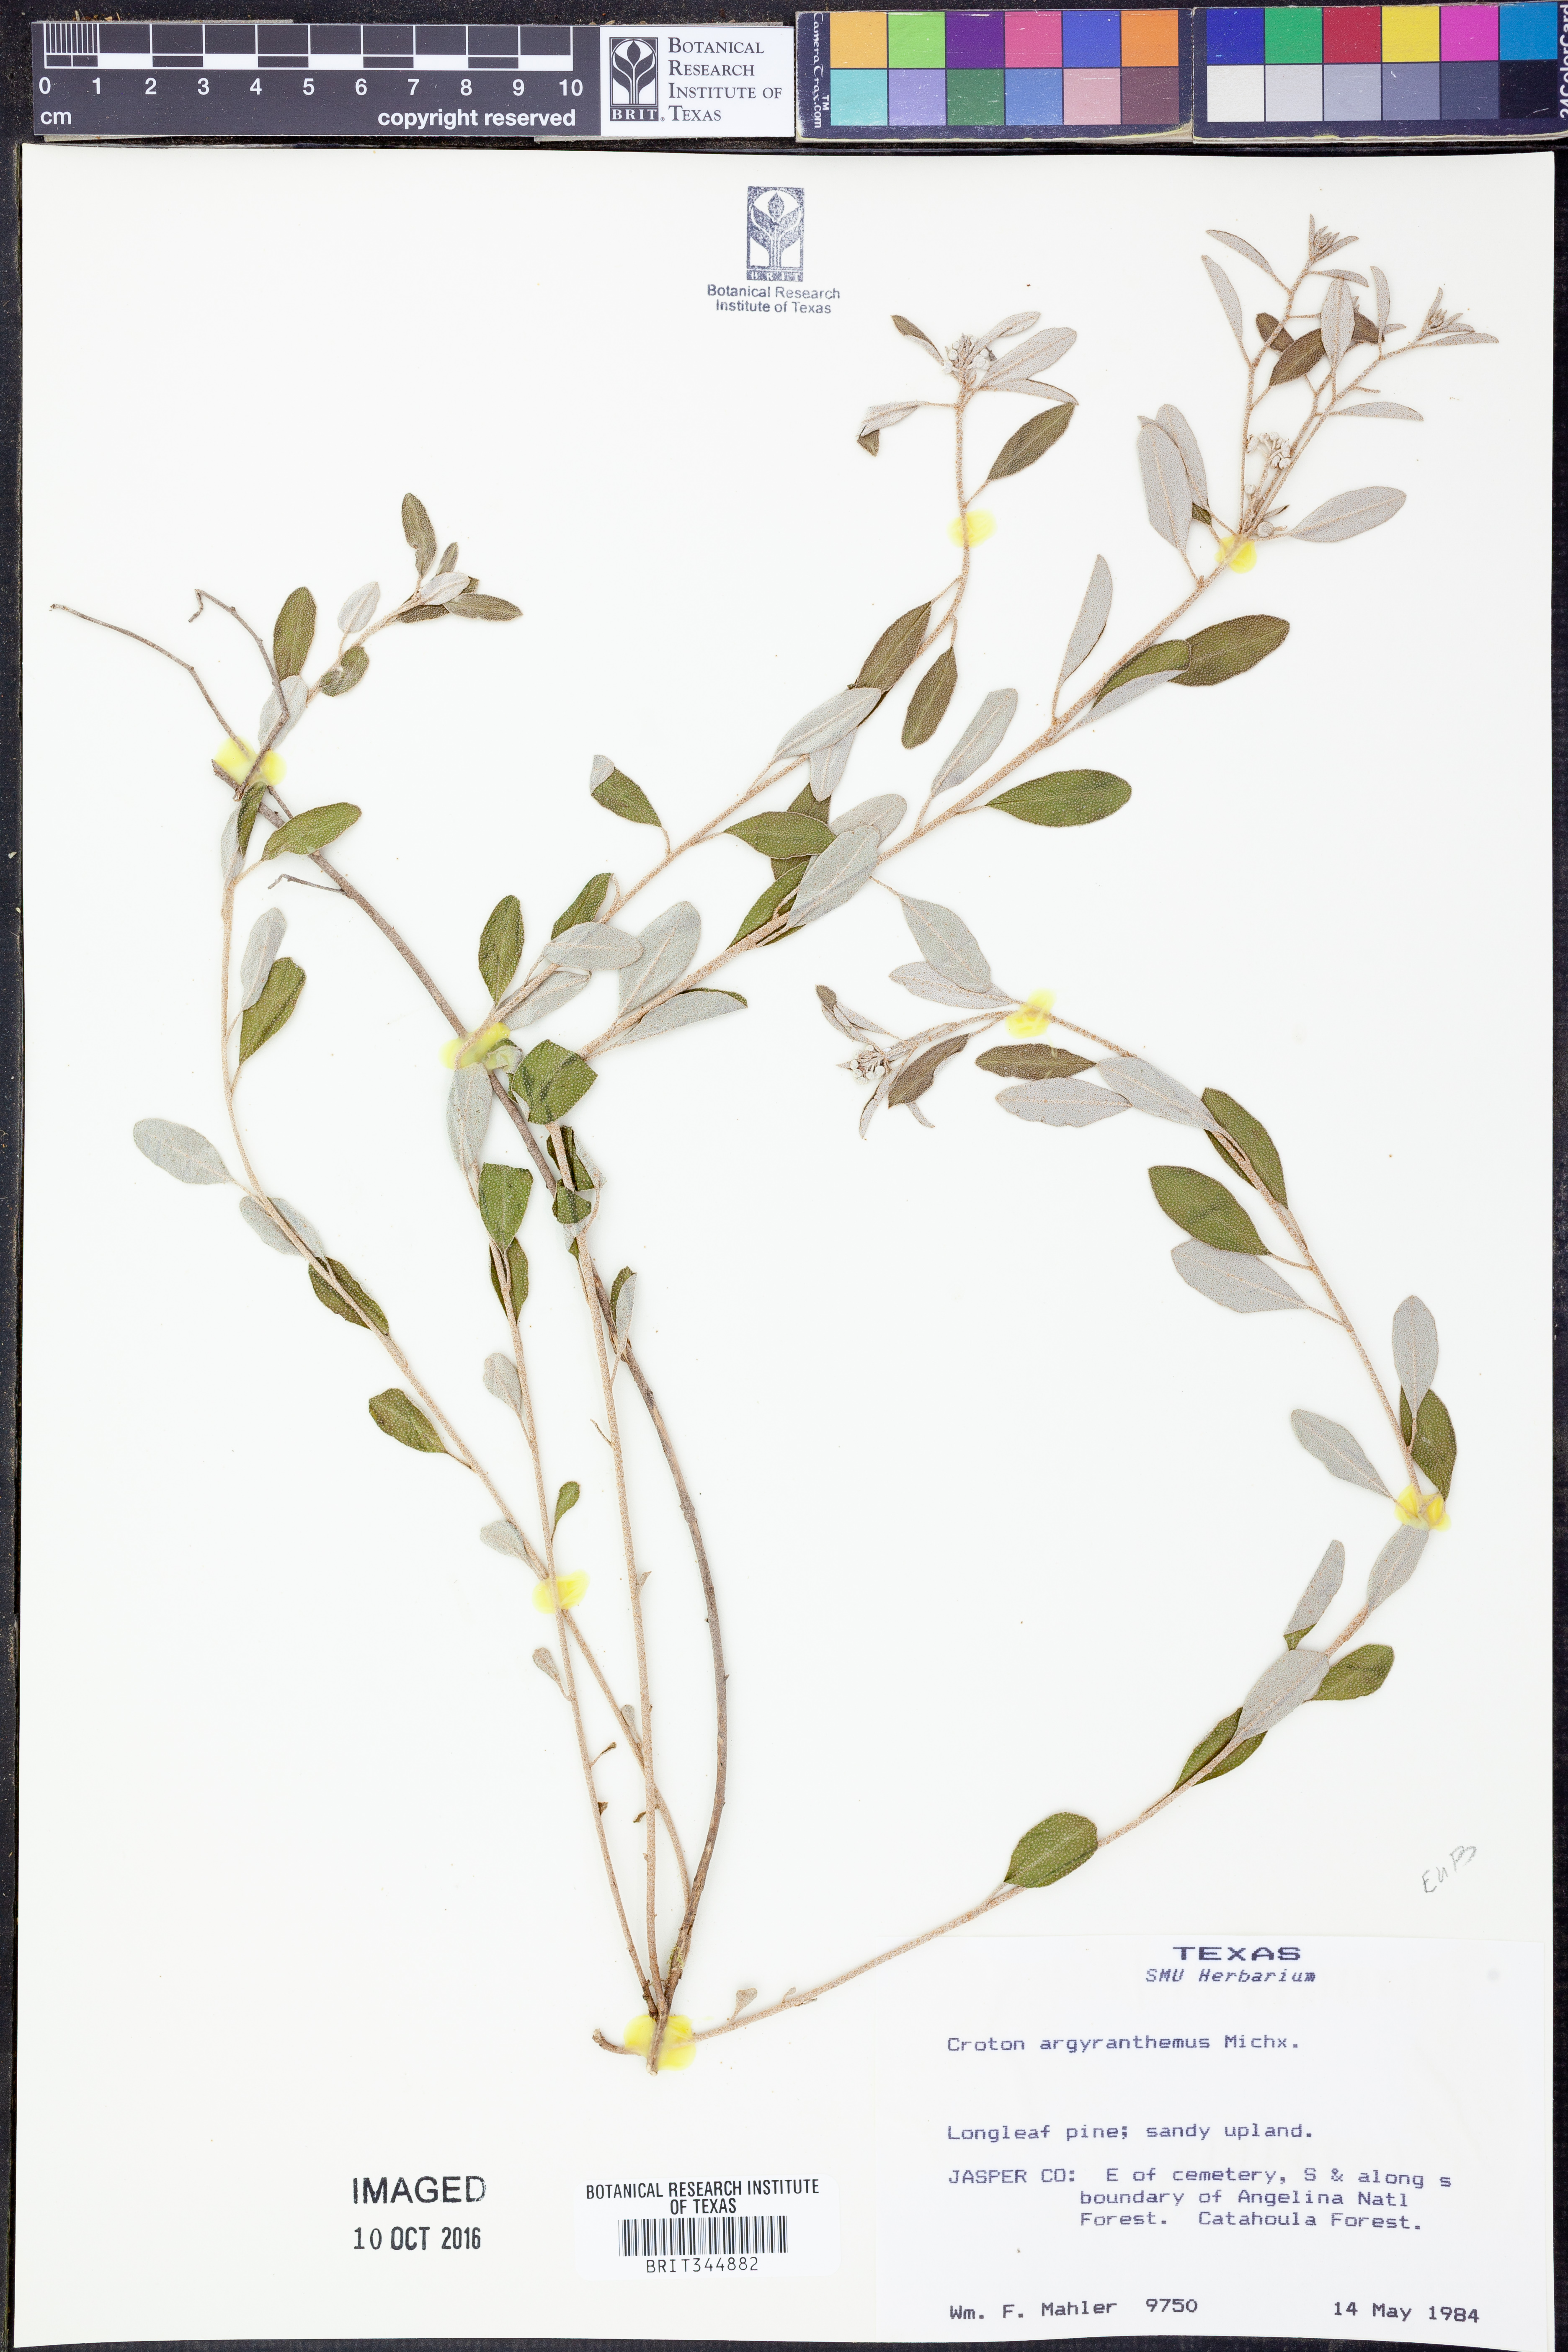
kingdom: Plantae
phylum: Tracheophyta
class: Magnoliopsida
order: Malpighiales
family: Euphorbiaceae
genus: Croton
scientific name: Croton argyranthemus
